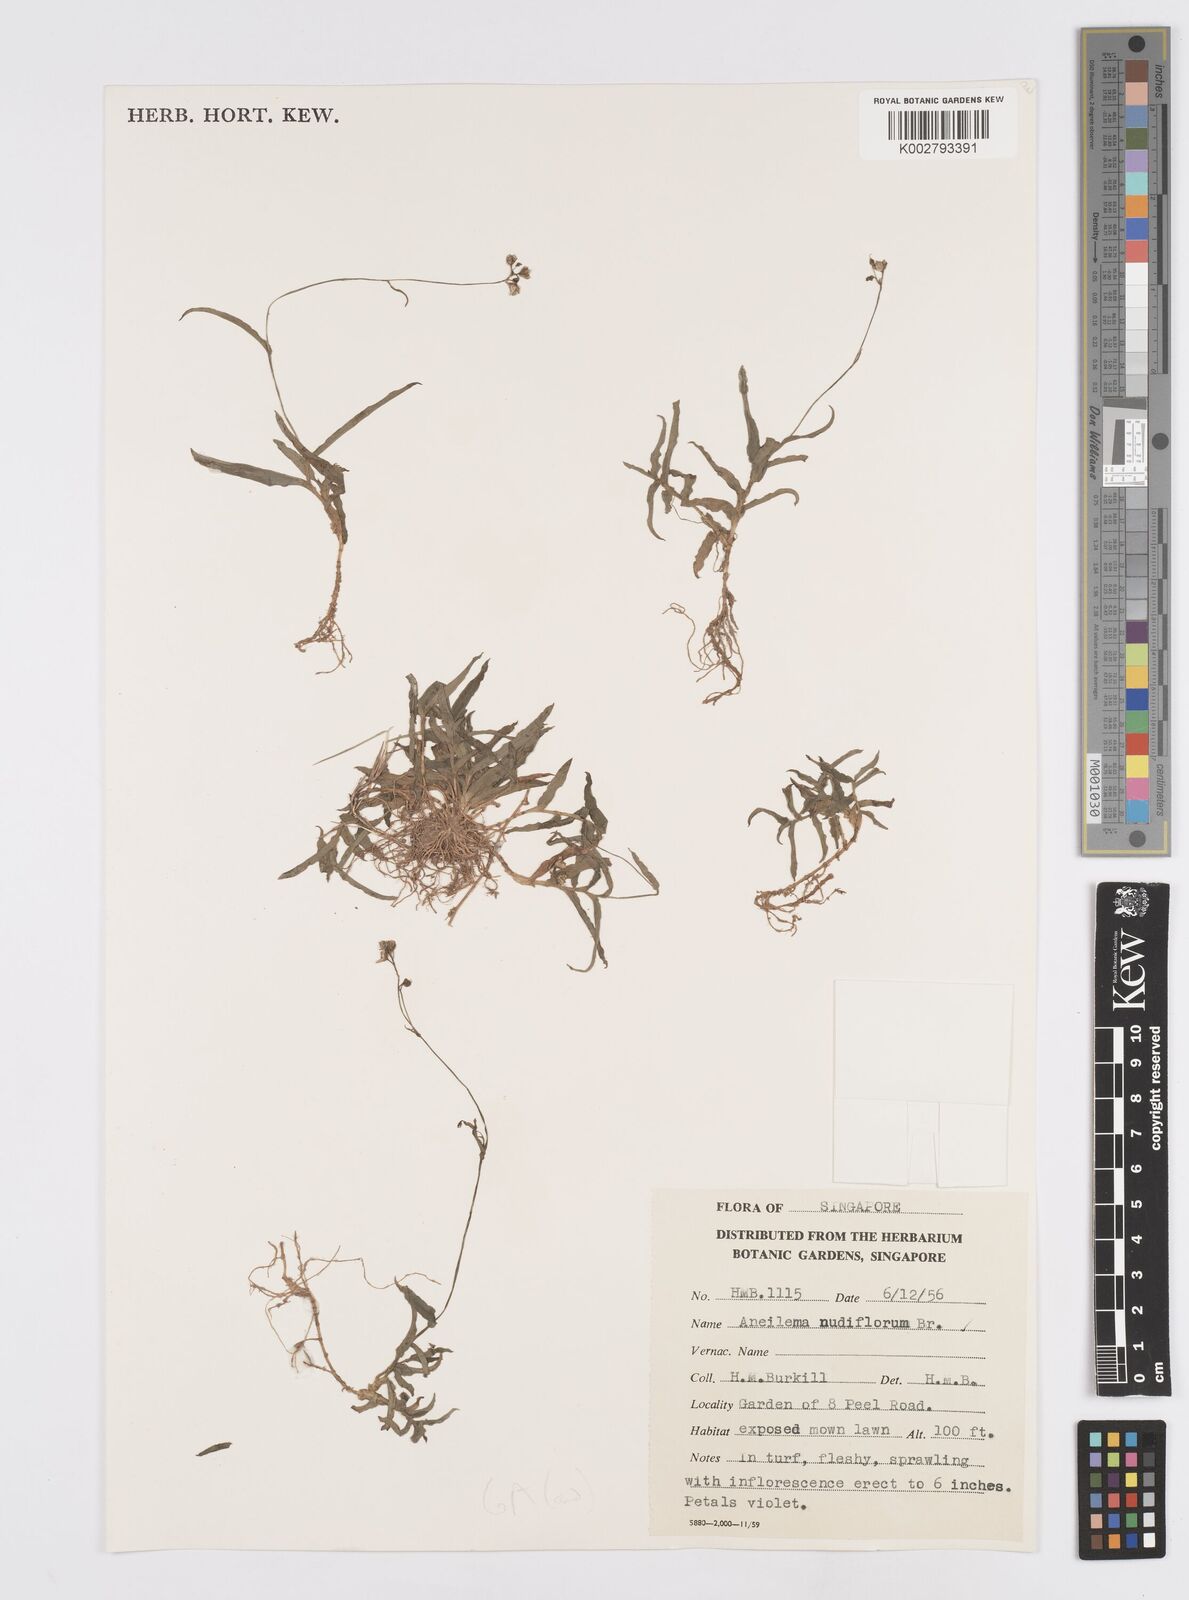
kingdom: Plantae
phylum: Tracheophyta
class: Liliopsida
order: Commelinales
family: Commelinaceae
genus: Murdannia
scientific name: Murdannia
